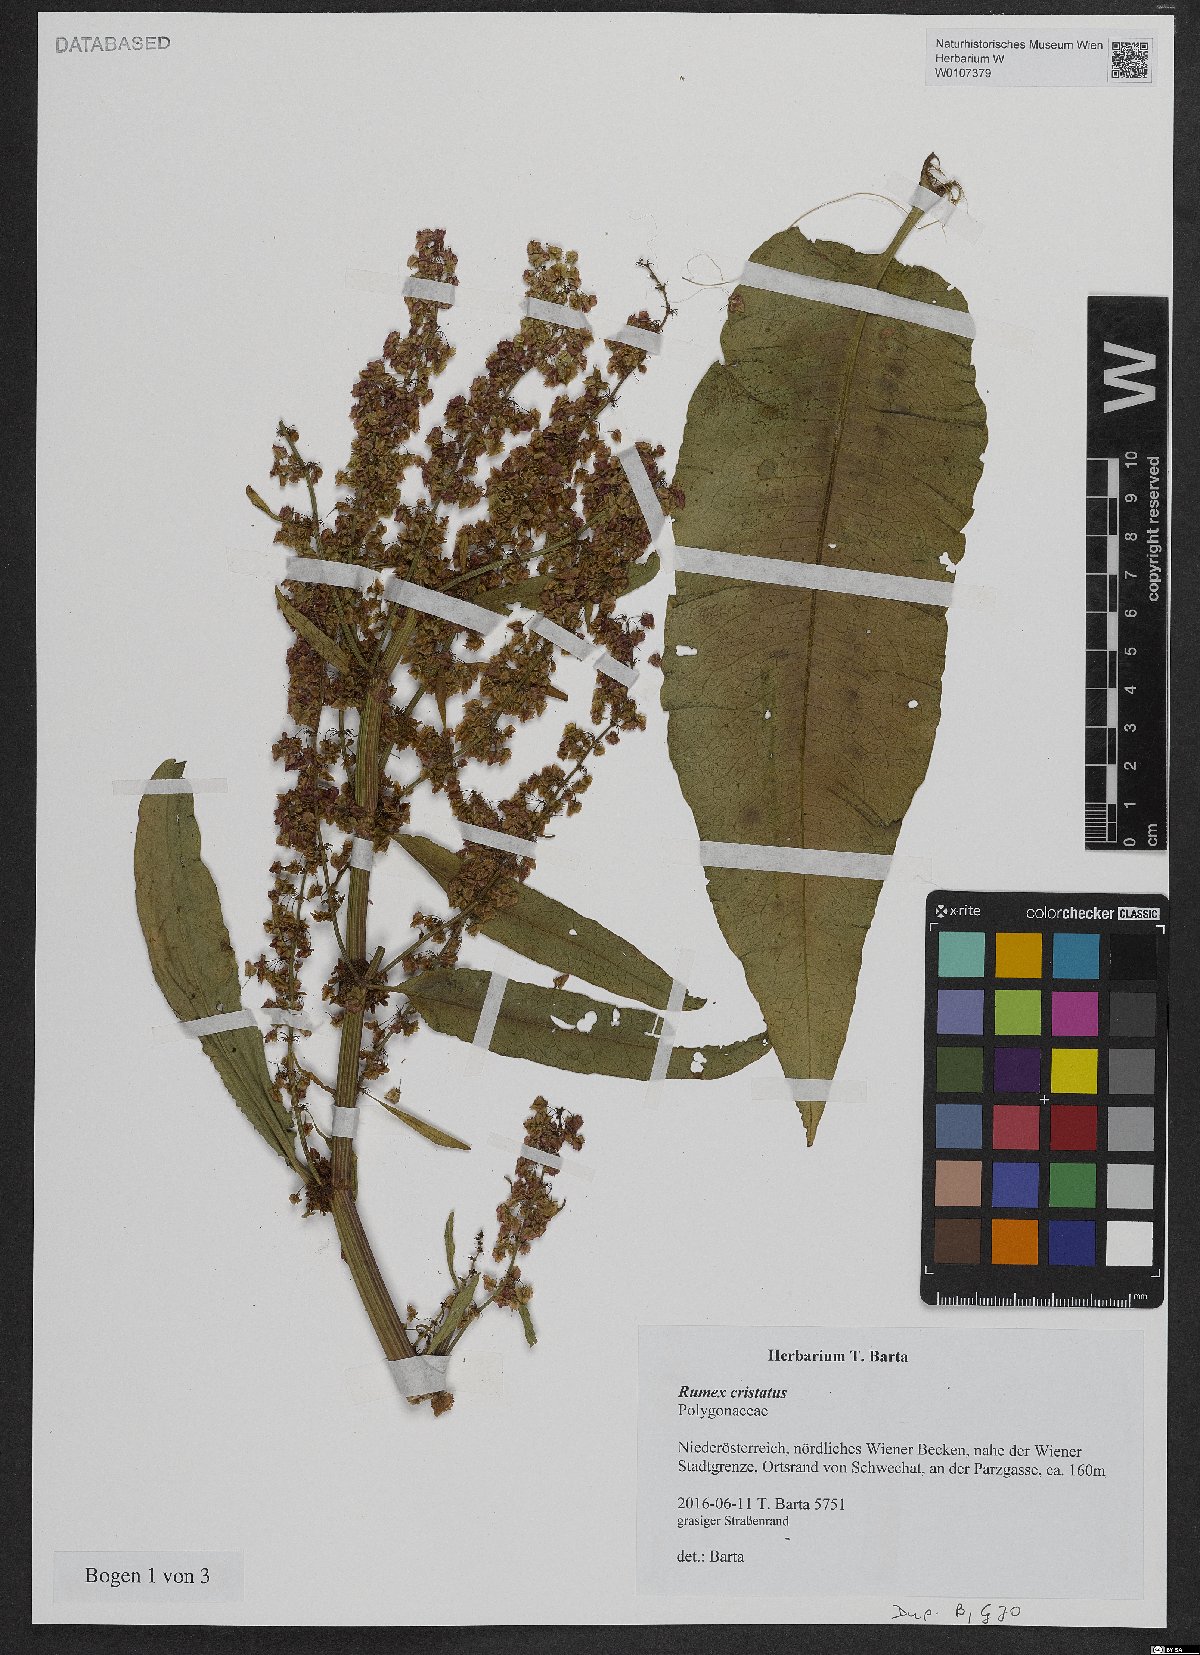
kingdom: Plantae
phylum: Tracheophyta
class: Magnoliopsida
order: Caryophyllales
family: Polygonaceae
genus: Rumex
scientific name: Rumex cristatus
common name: Greek dock
